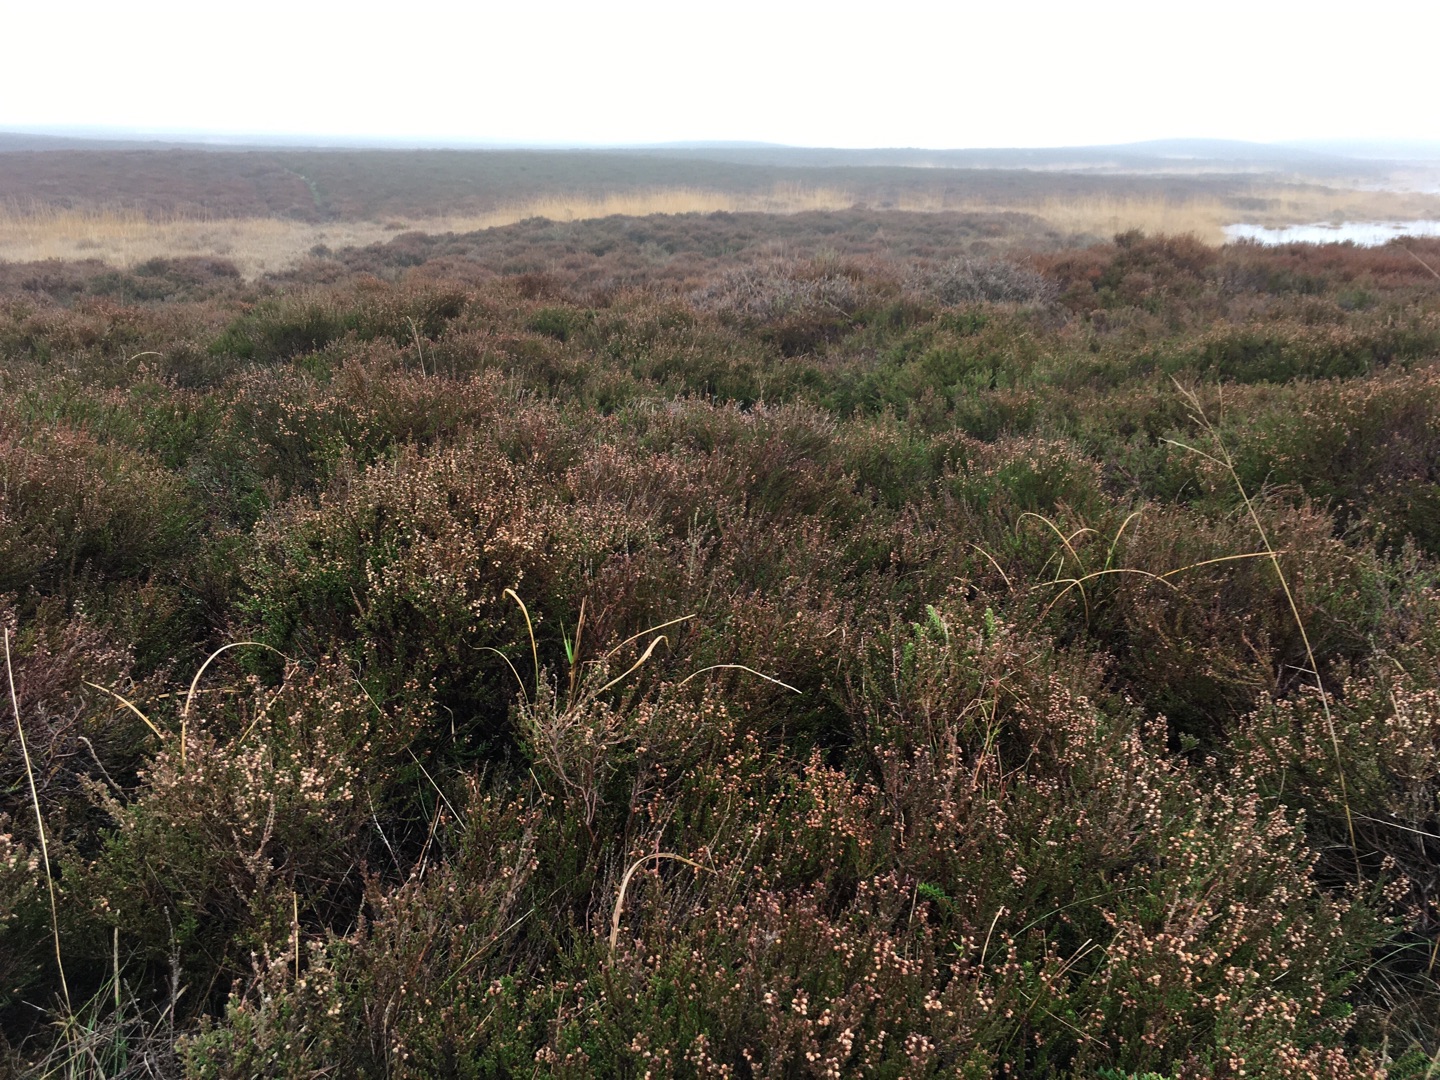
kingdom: Plantae
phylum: Tracheophyta
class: Magnoliopsida
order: Ericales
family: Ericaceae
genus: Calluna
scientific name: Calluna vulgaris
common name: Hedelyng
